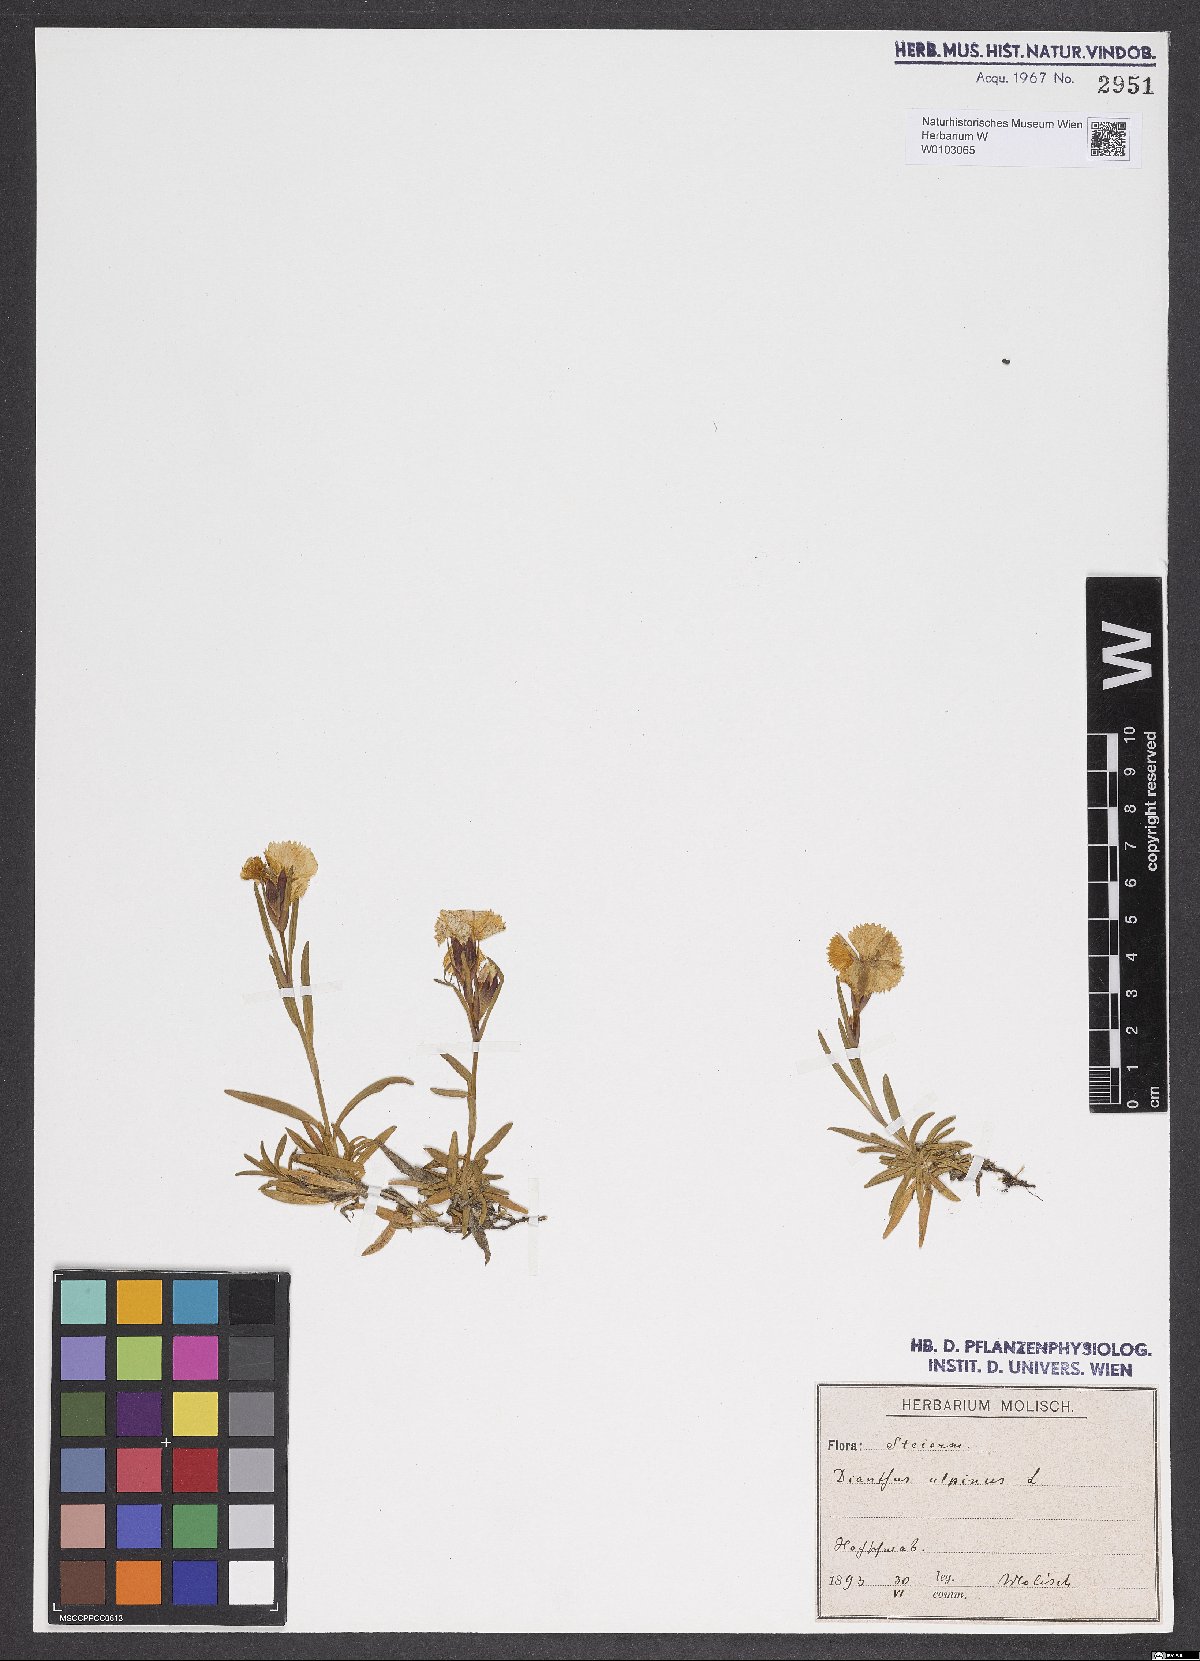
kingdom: Plantae
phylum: Tracheophyta
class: Magnoliopsida
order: Caryophyllales
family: Caryophyllaceae
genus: Dianthus
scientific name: Dianthus alpinus
